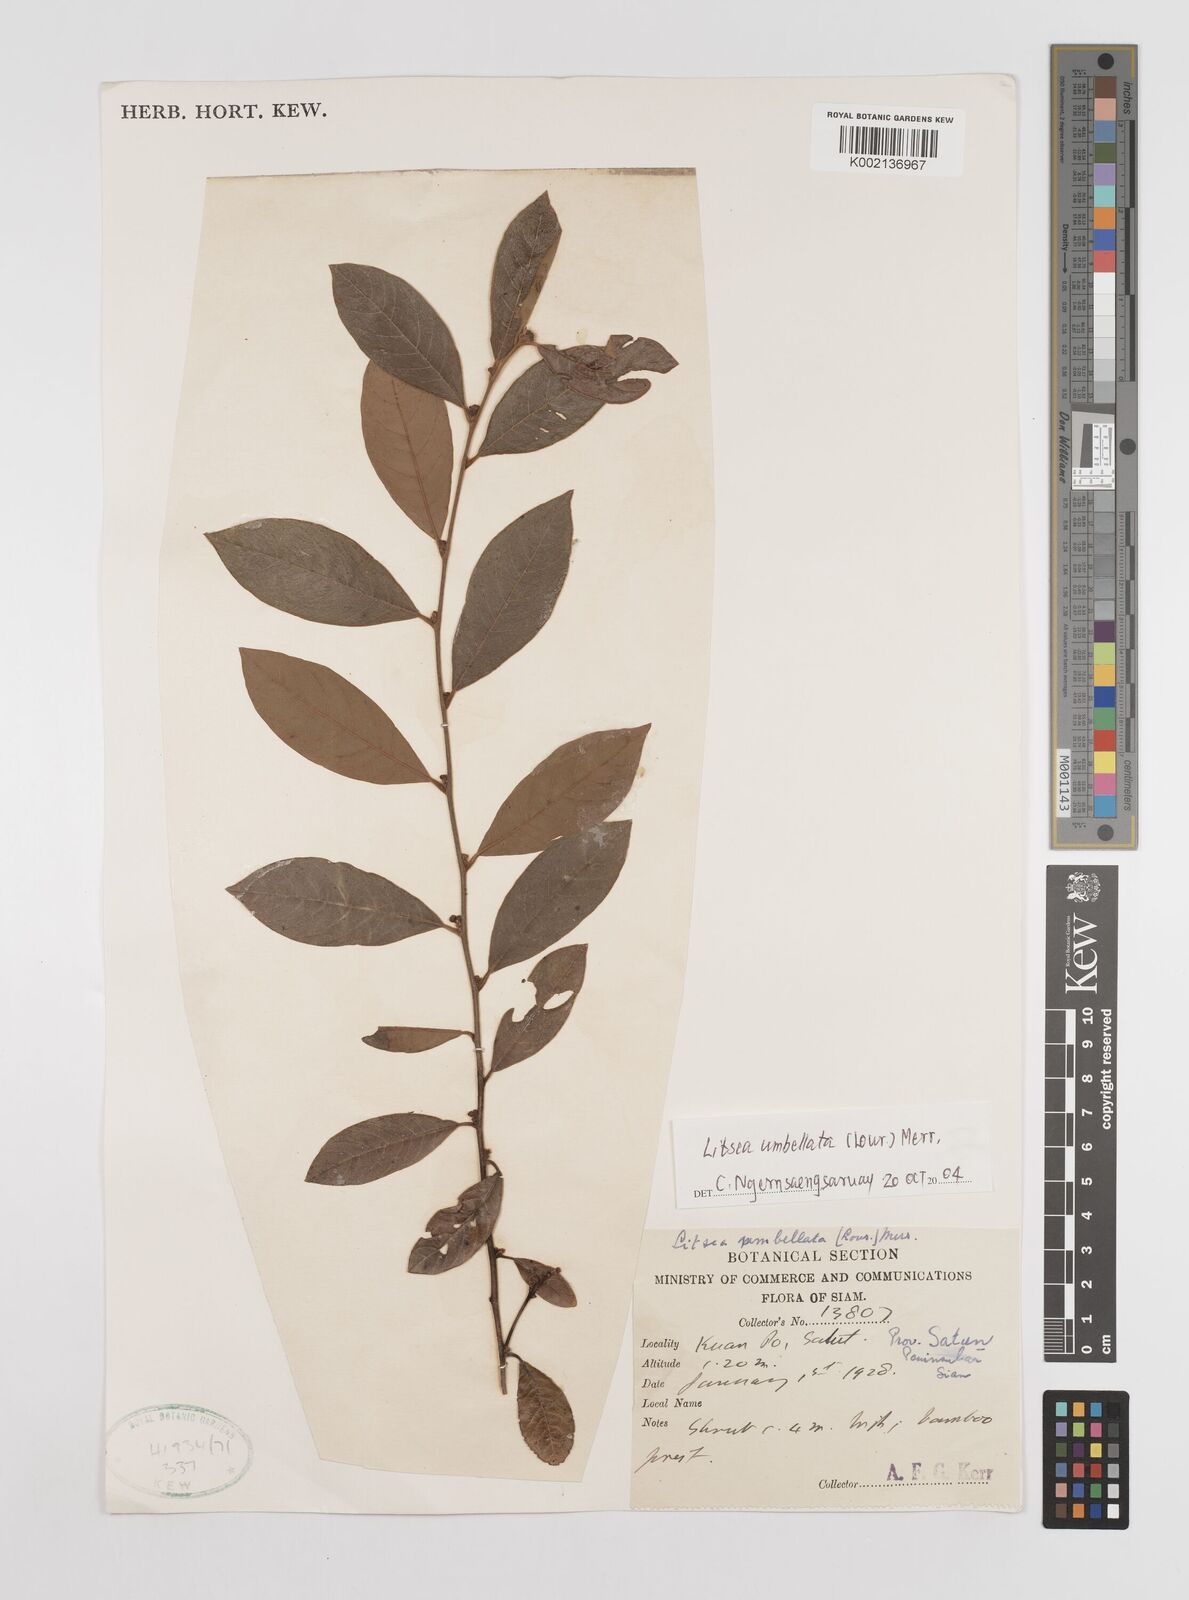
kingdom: Plantae
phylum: Tracheophyta
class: Magnoliopsida
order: Laurales
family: Lauraceae
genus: Litsea
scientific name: Litsea umbellata
